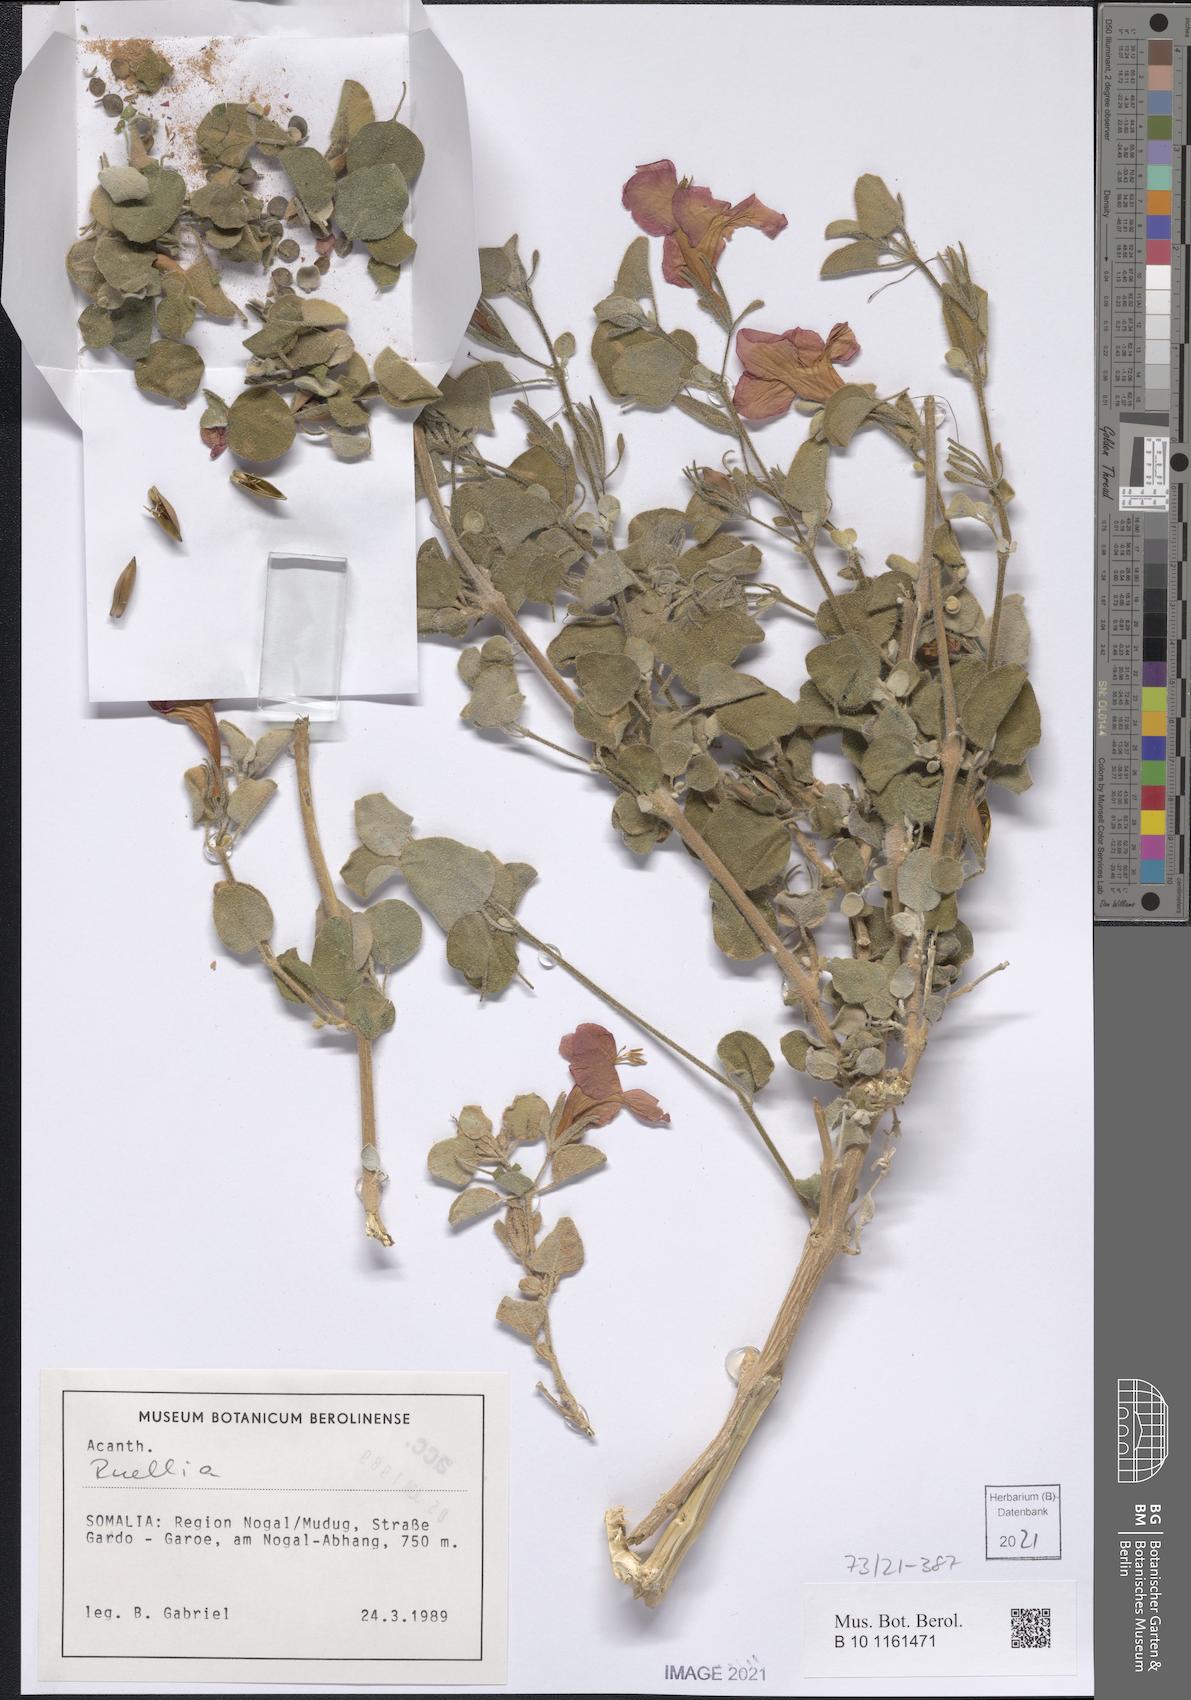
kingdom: Plantae
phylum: Tracheophyta
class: Magnoliopsida
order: Lamiales
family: Acanthaceae
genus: Ruellia
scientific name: Ruellia carnea
